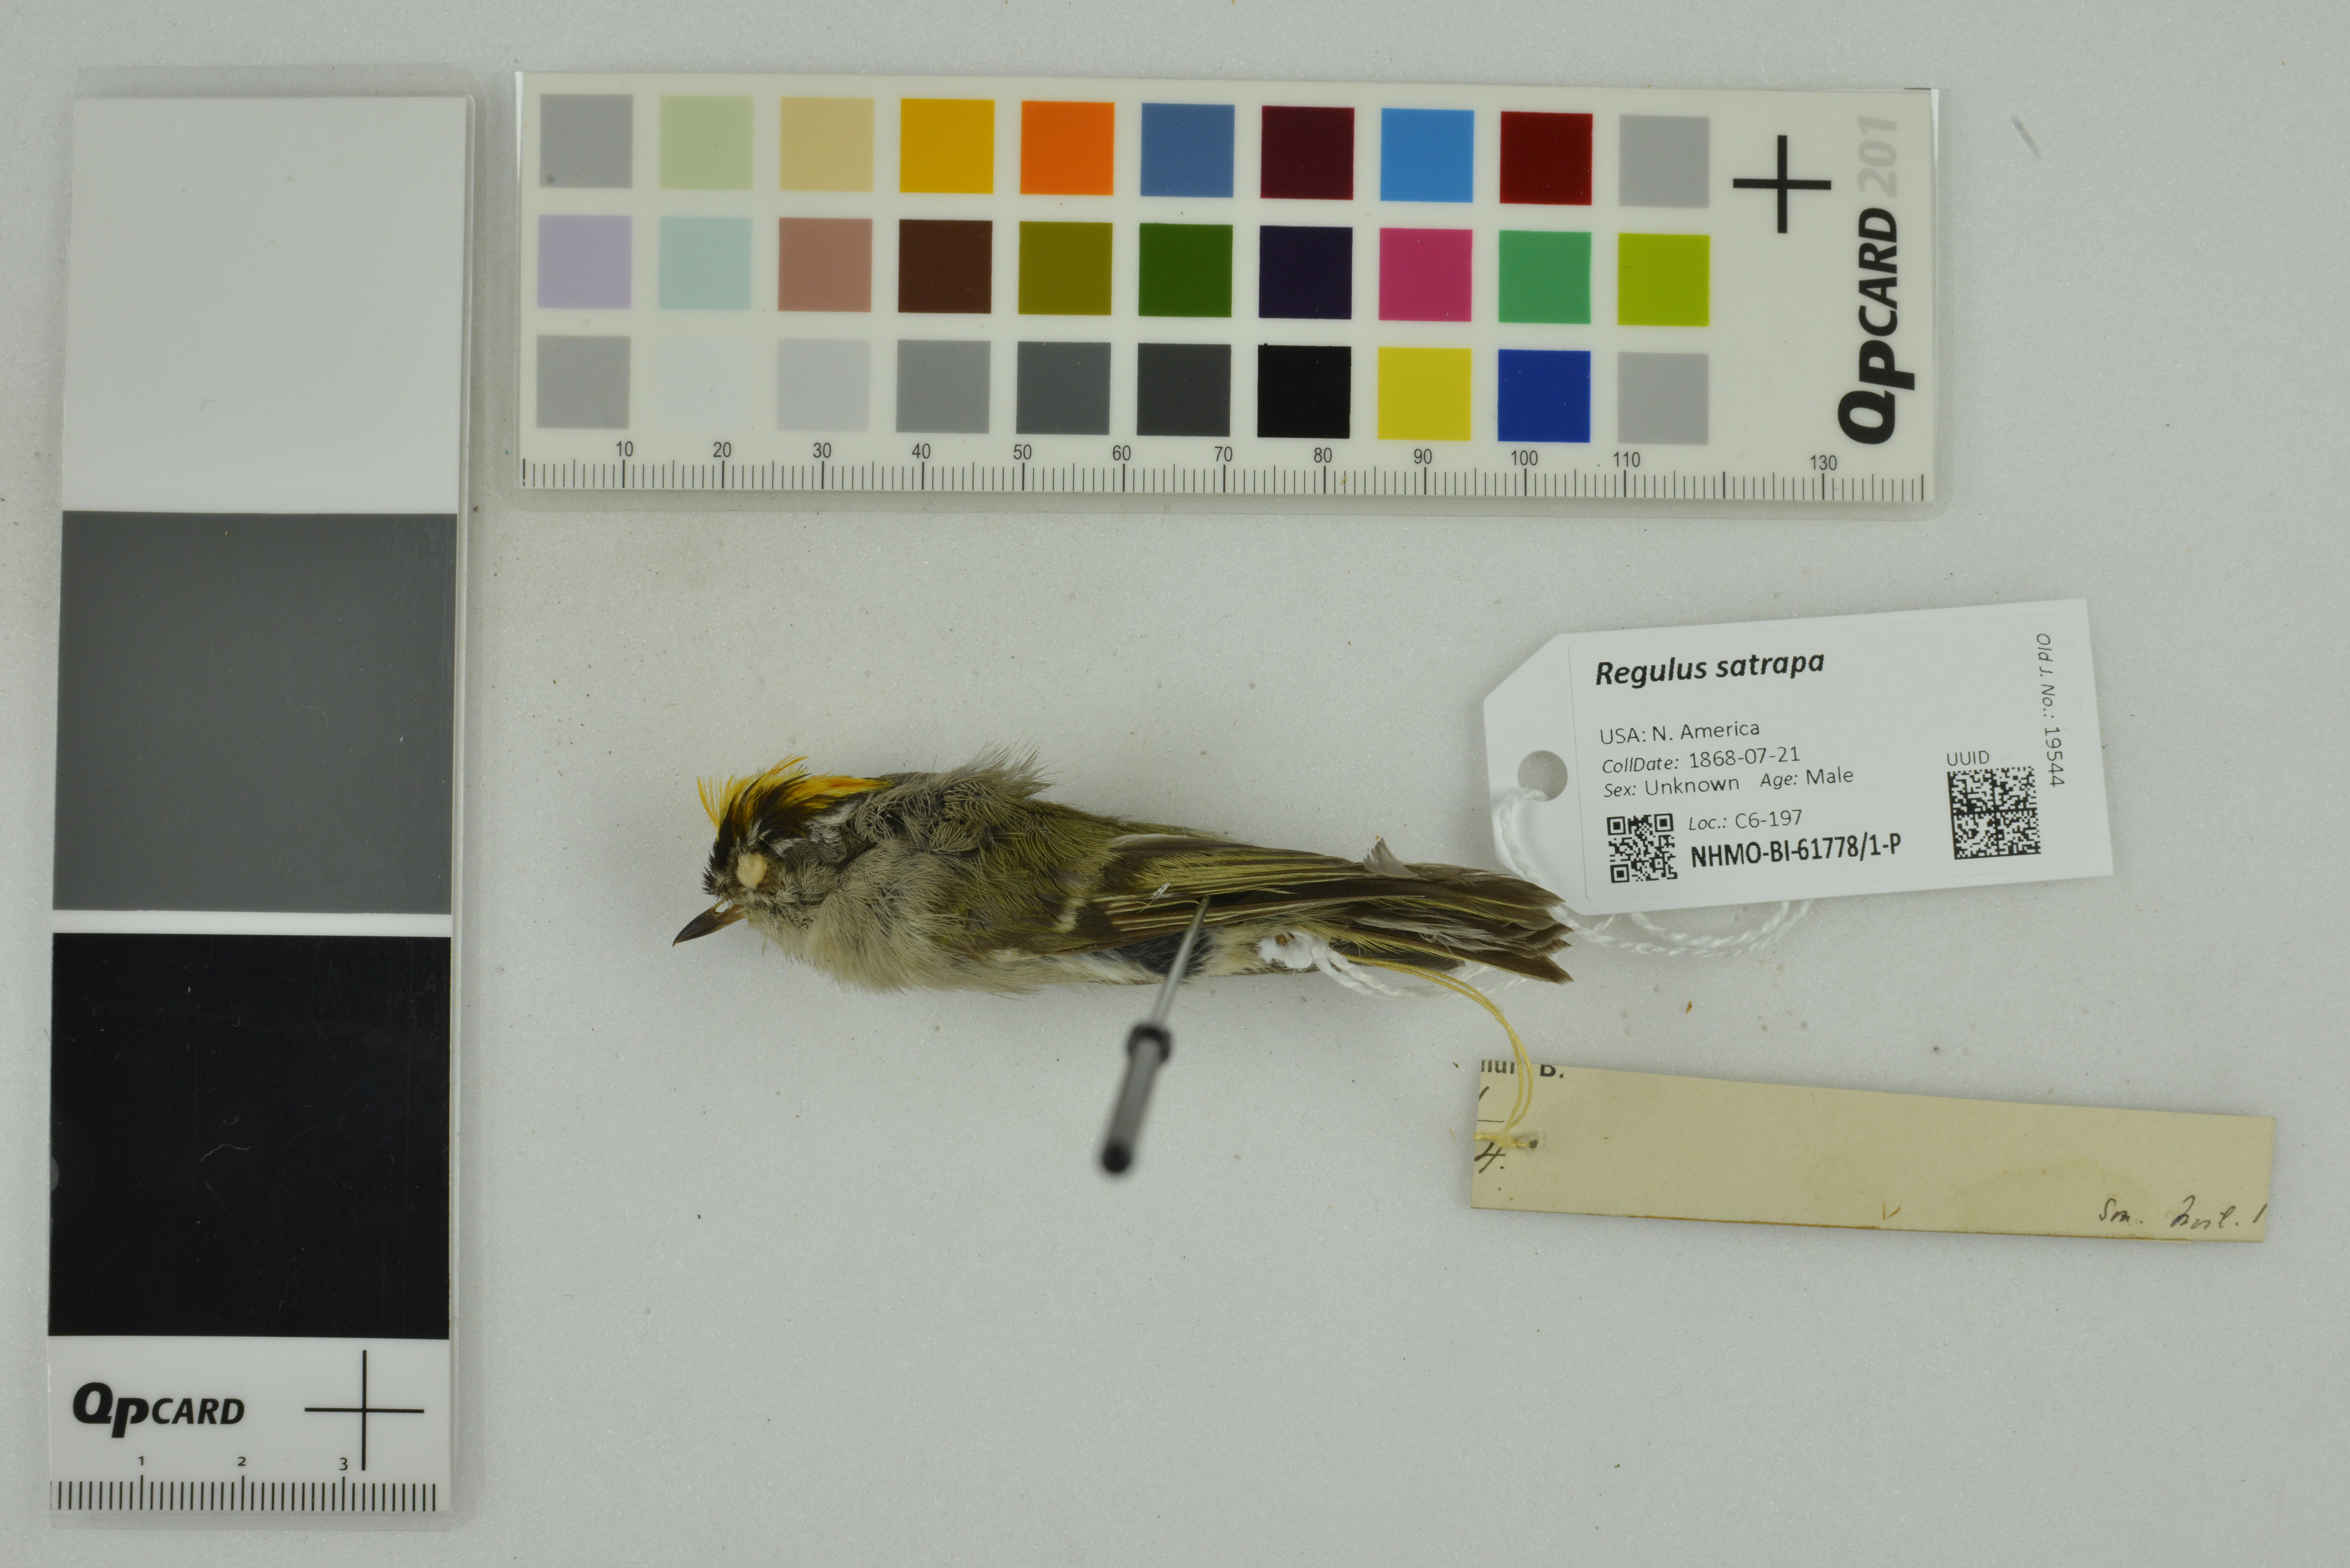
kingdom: Animalia
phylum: Chordata
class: Aves
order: Passeriformes
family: Regulidae
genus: Regulus
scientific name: Regulus satrapa
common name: Golden-crowned kinglet
